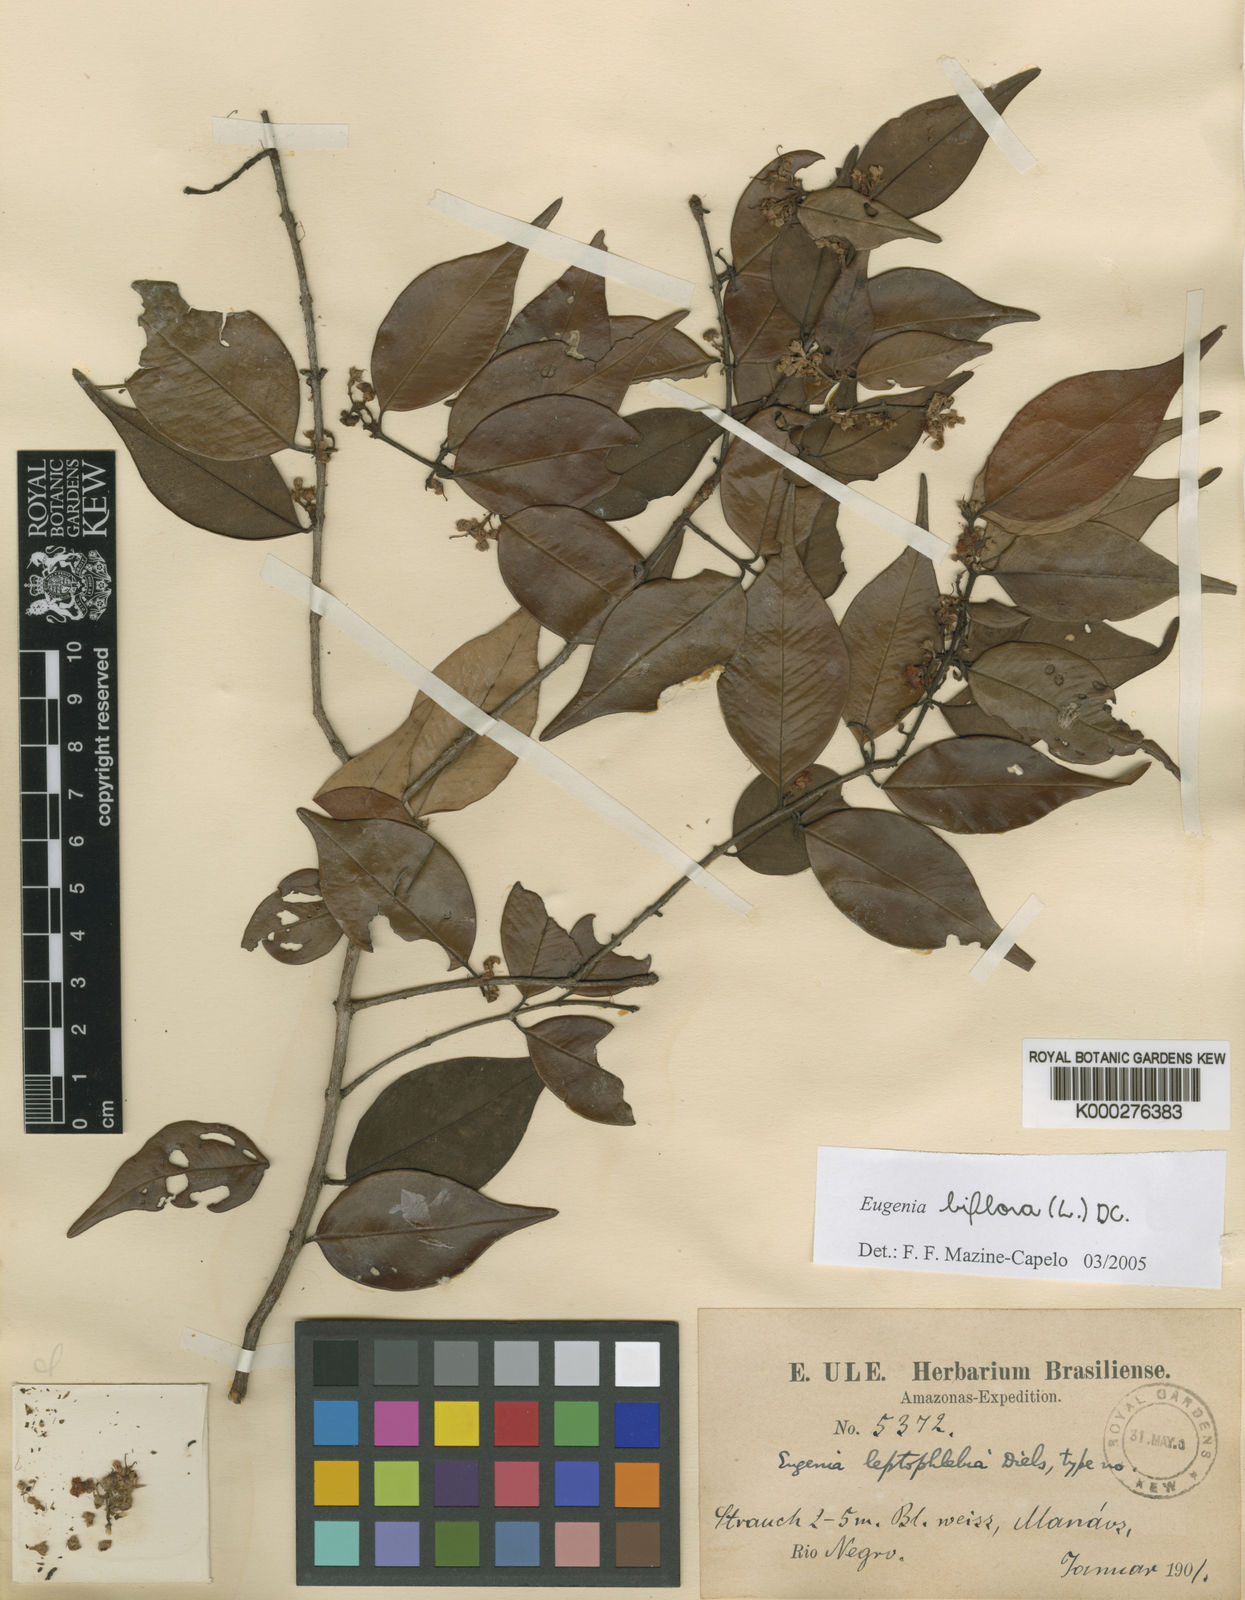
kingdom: Plantae
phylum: Tracheophyta
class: Magnoliopsida
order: Myrtales
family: Myrtaceae
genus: Eugenia
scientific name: Eugenia biflora
